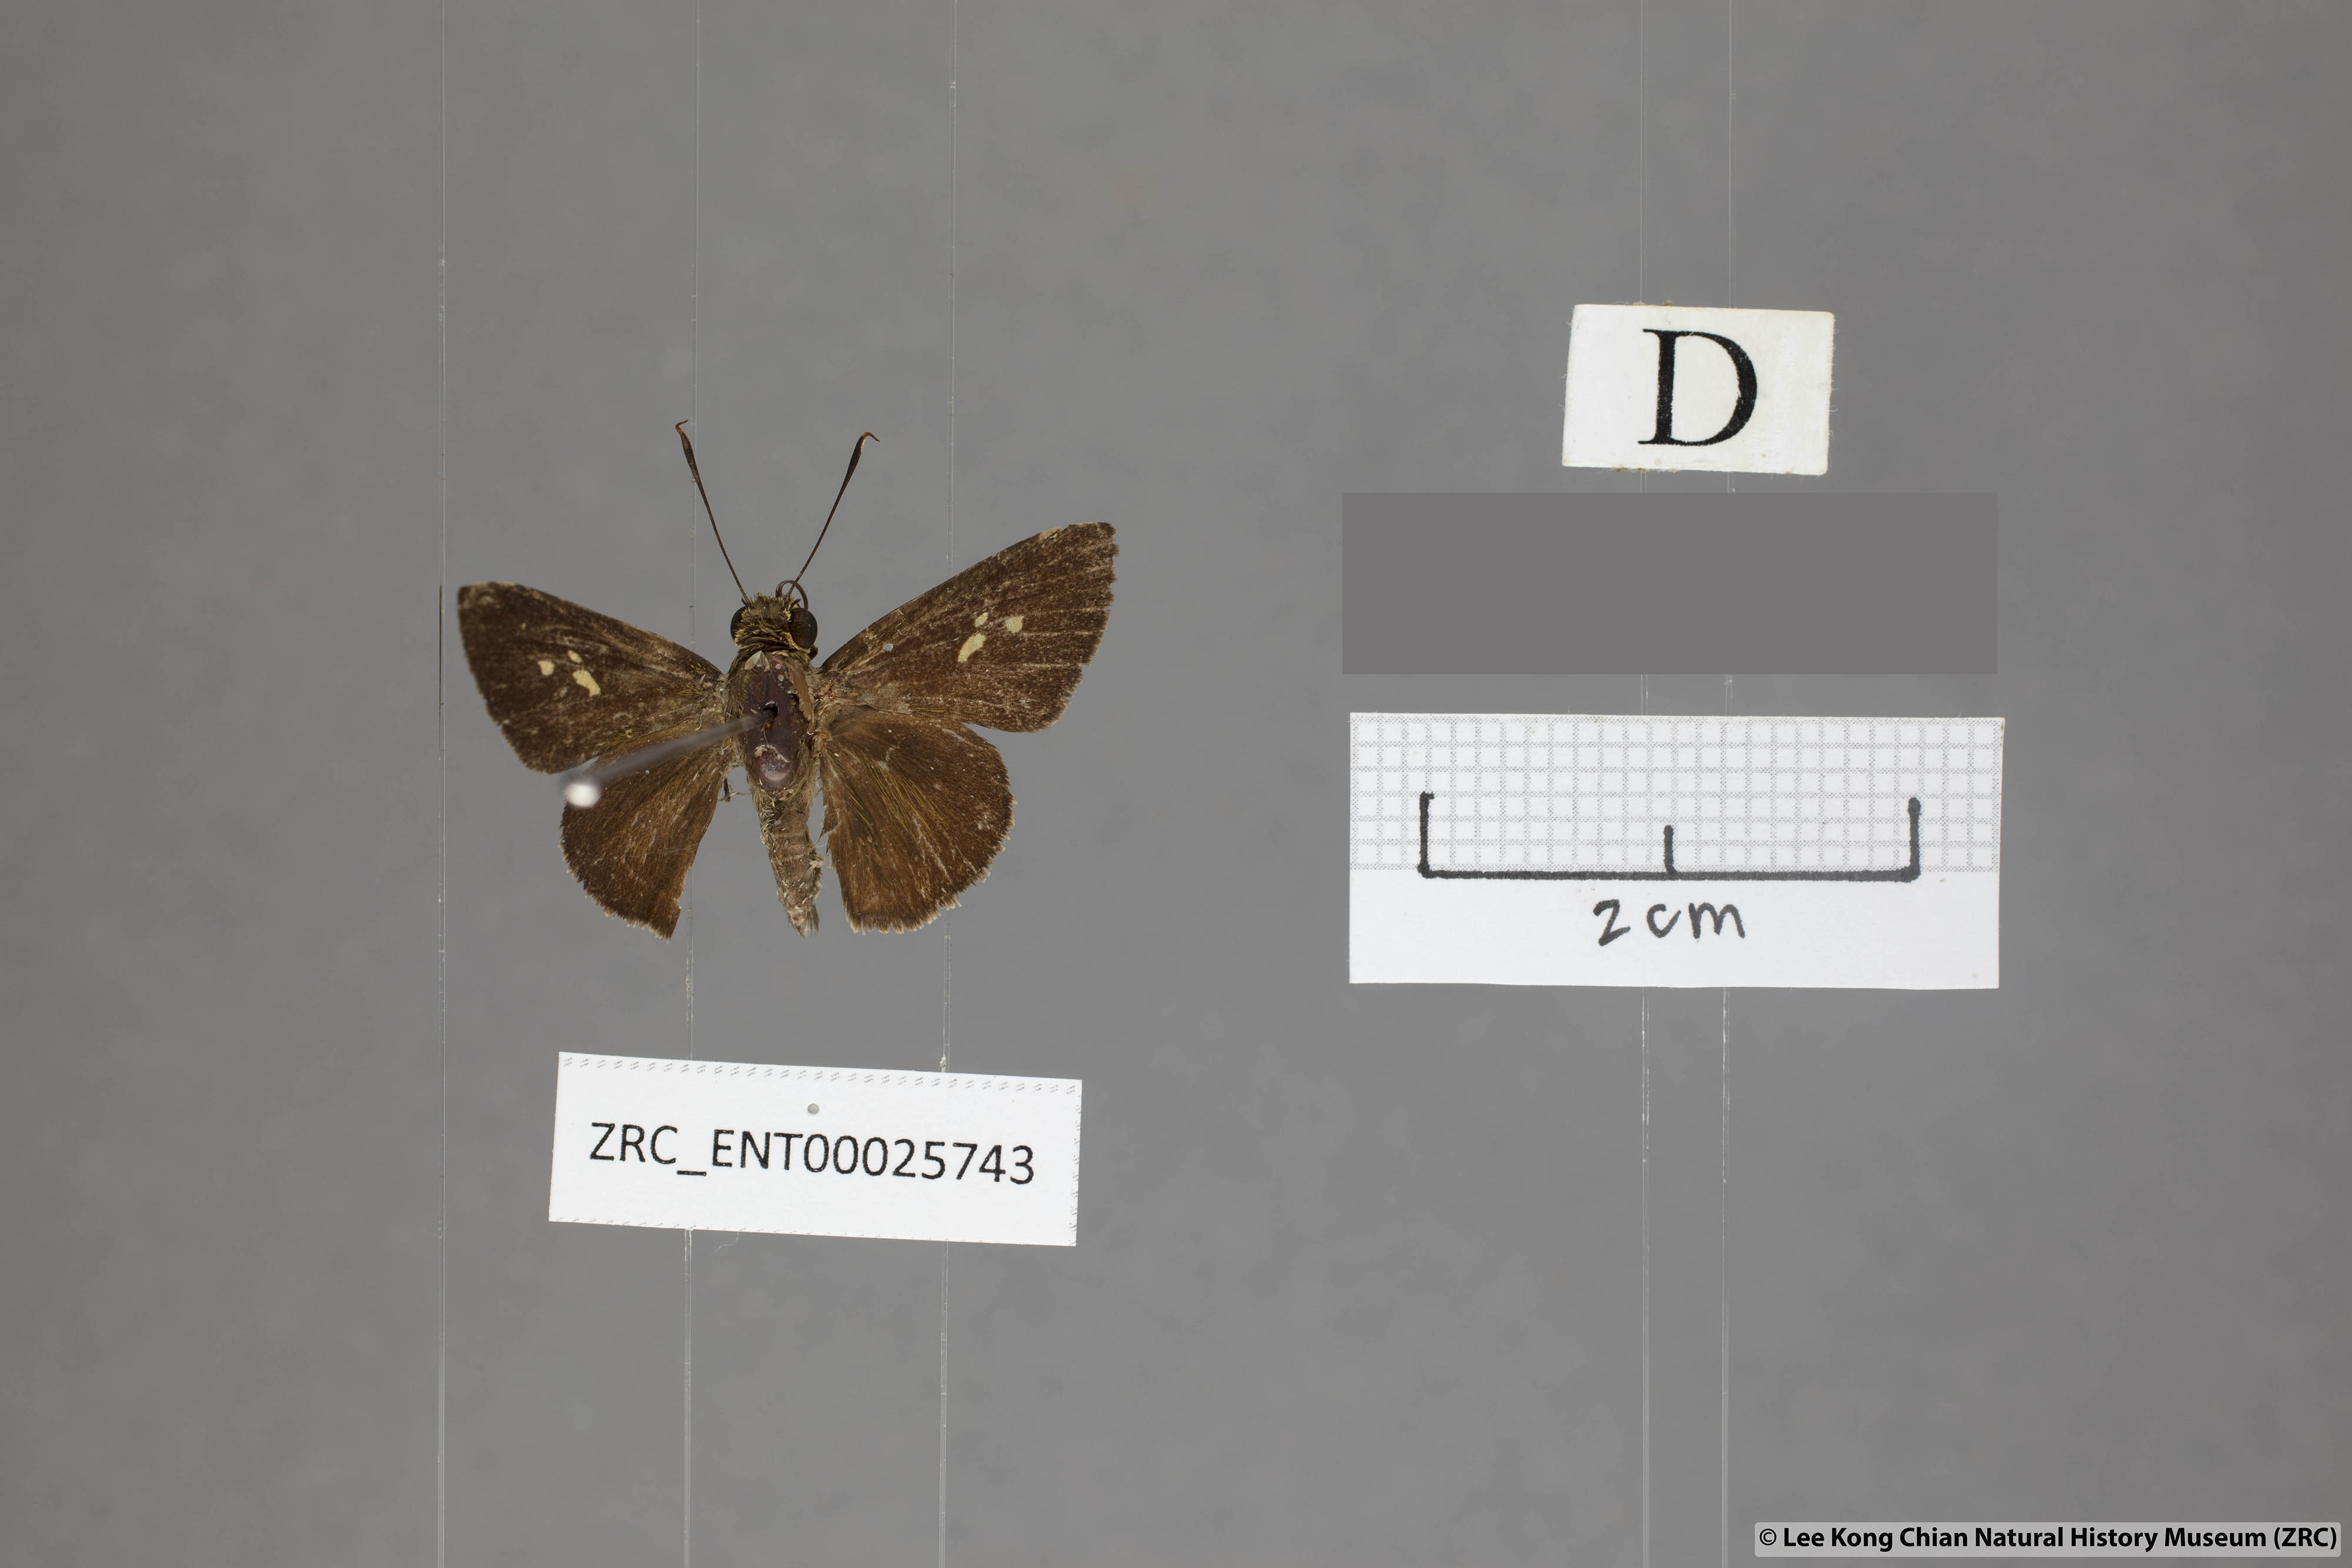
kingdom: Animalia
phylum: Arthropoda
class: Insecta
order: Lepidoptera
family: Hesperiidae
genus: Zographetus
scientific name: Zographetus rama
